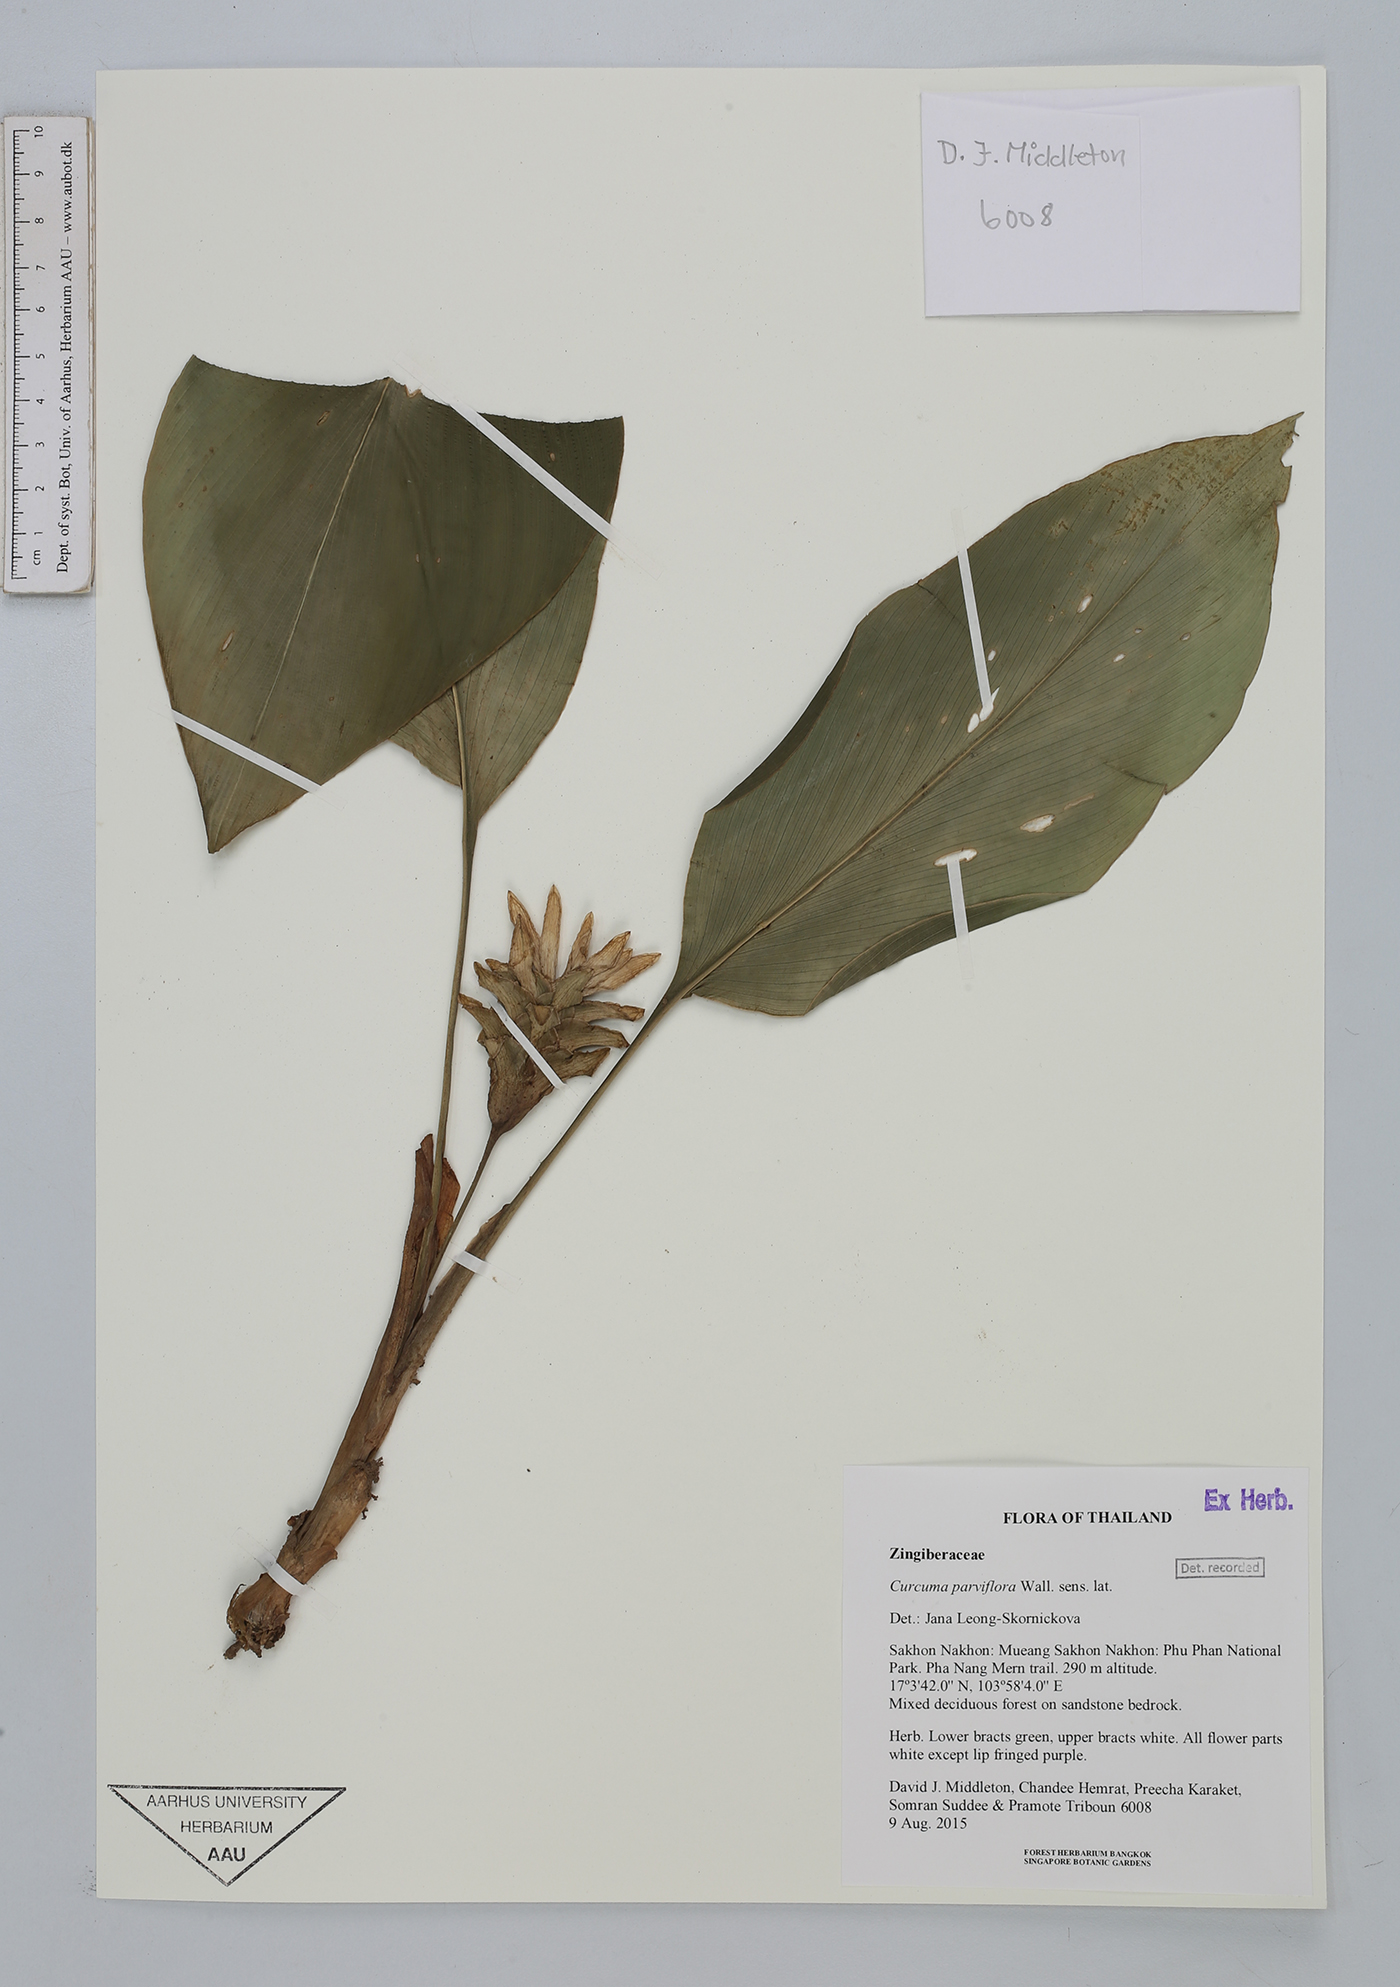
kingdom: Plantae
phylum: Tracheophyta
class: Liliopsida
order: Zingiberales
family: Zingiberaceae
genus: Curcuma
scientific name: Curcuma parviflora
